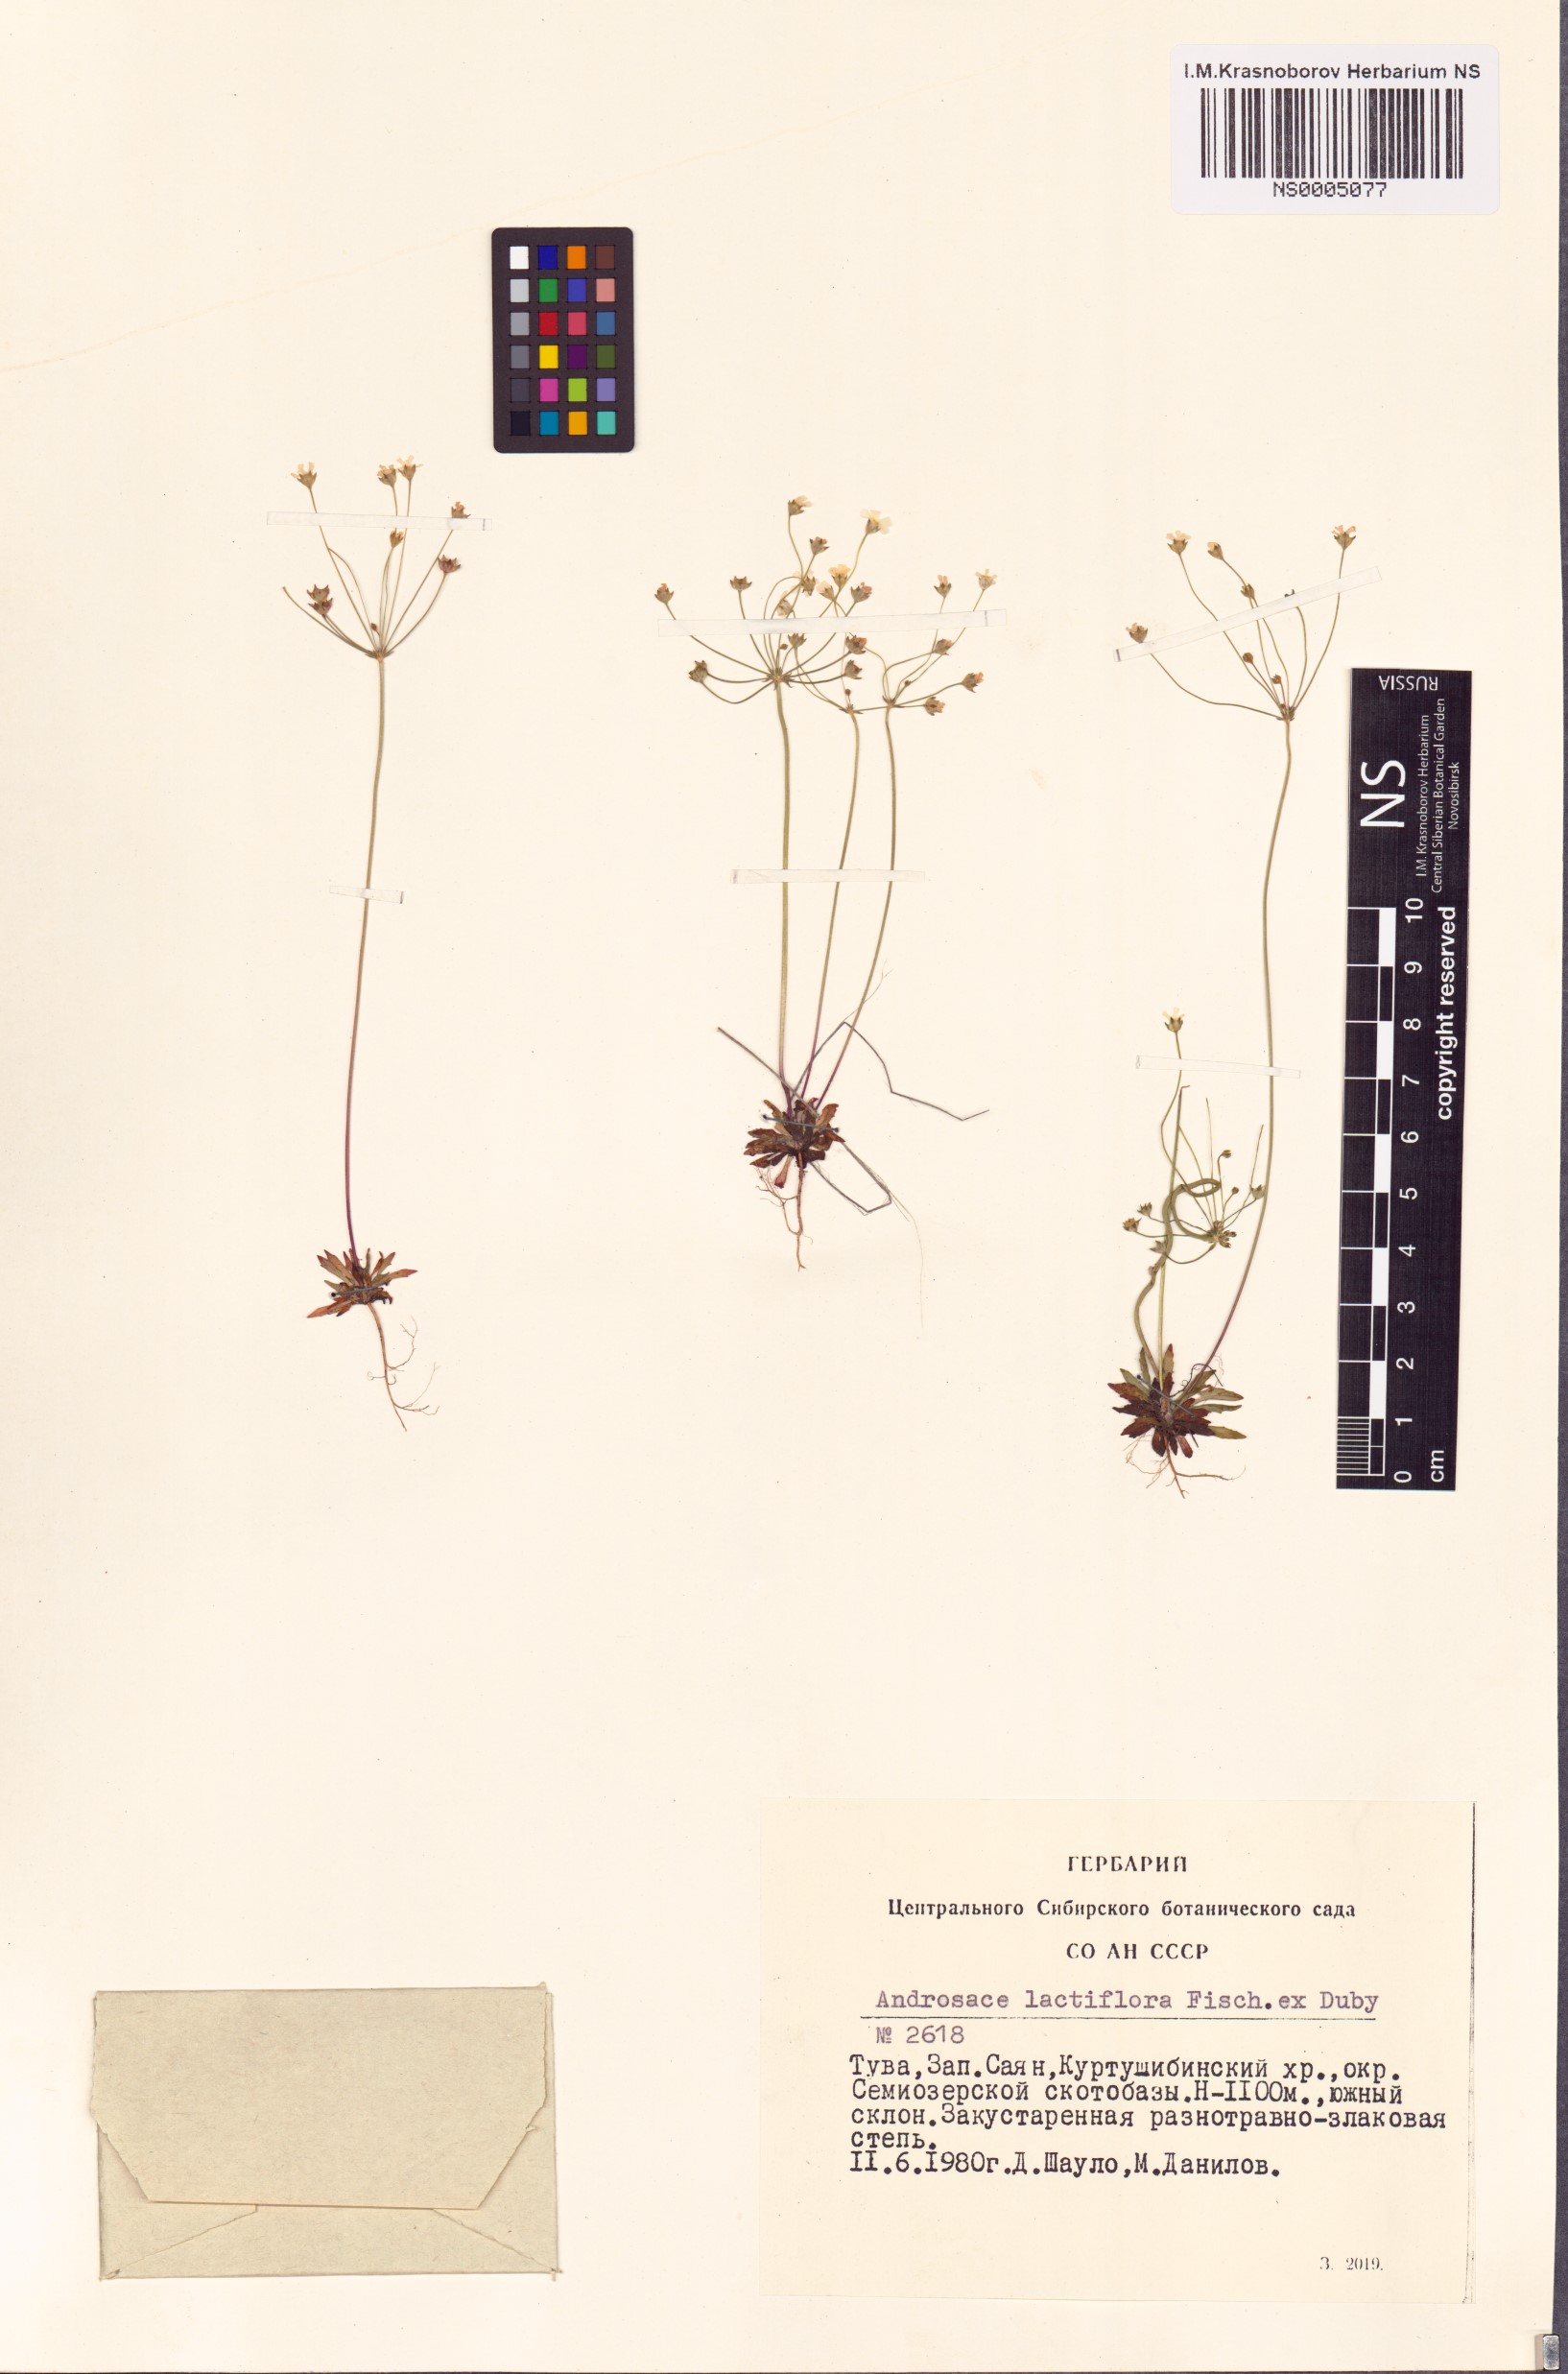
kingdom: Plantae
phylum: Tracheophyta
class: Magnoliopsida
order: Ericales
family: Primulaceae
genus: Androsace
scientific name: Androsace lactiflora
